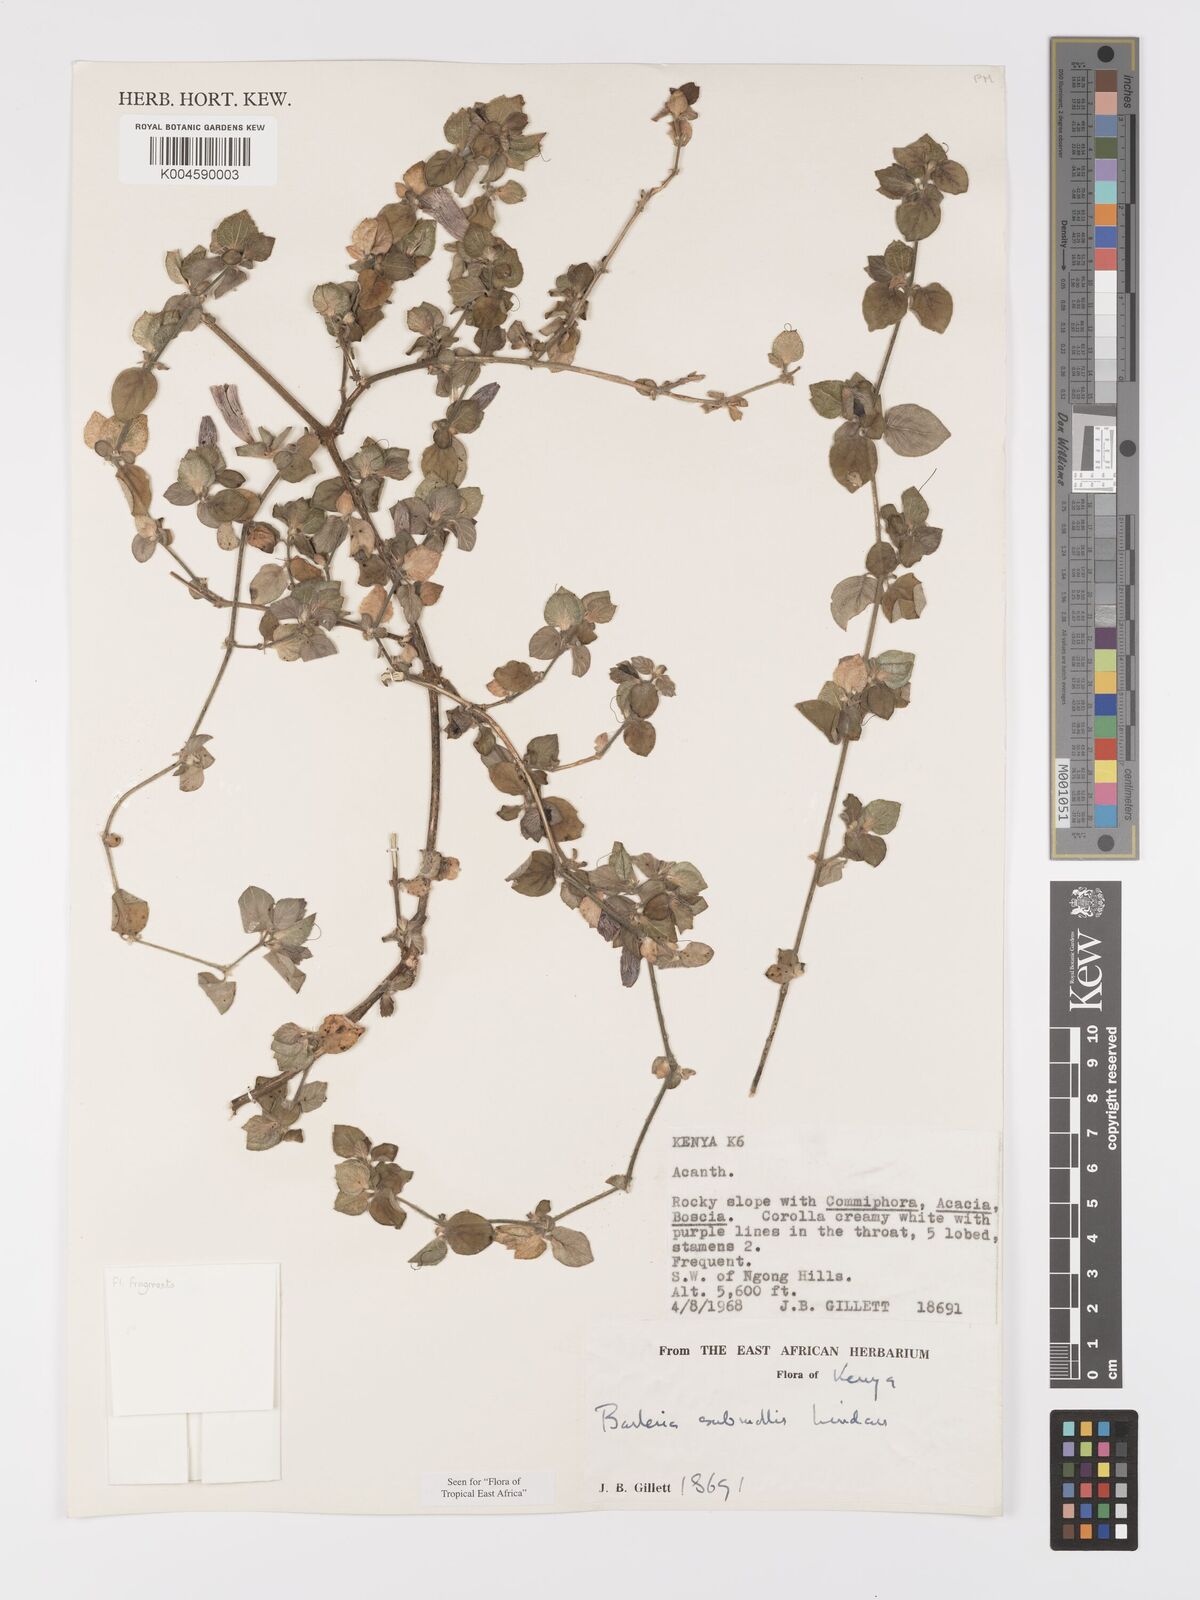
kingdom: Plantae
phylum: Tracheophyta
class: Magnoliopsida
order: Lamiales
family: Acanthaceae
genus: Barleria
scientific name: Barleria submollis
